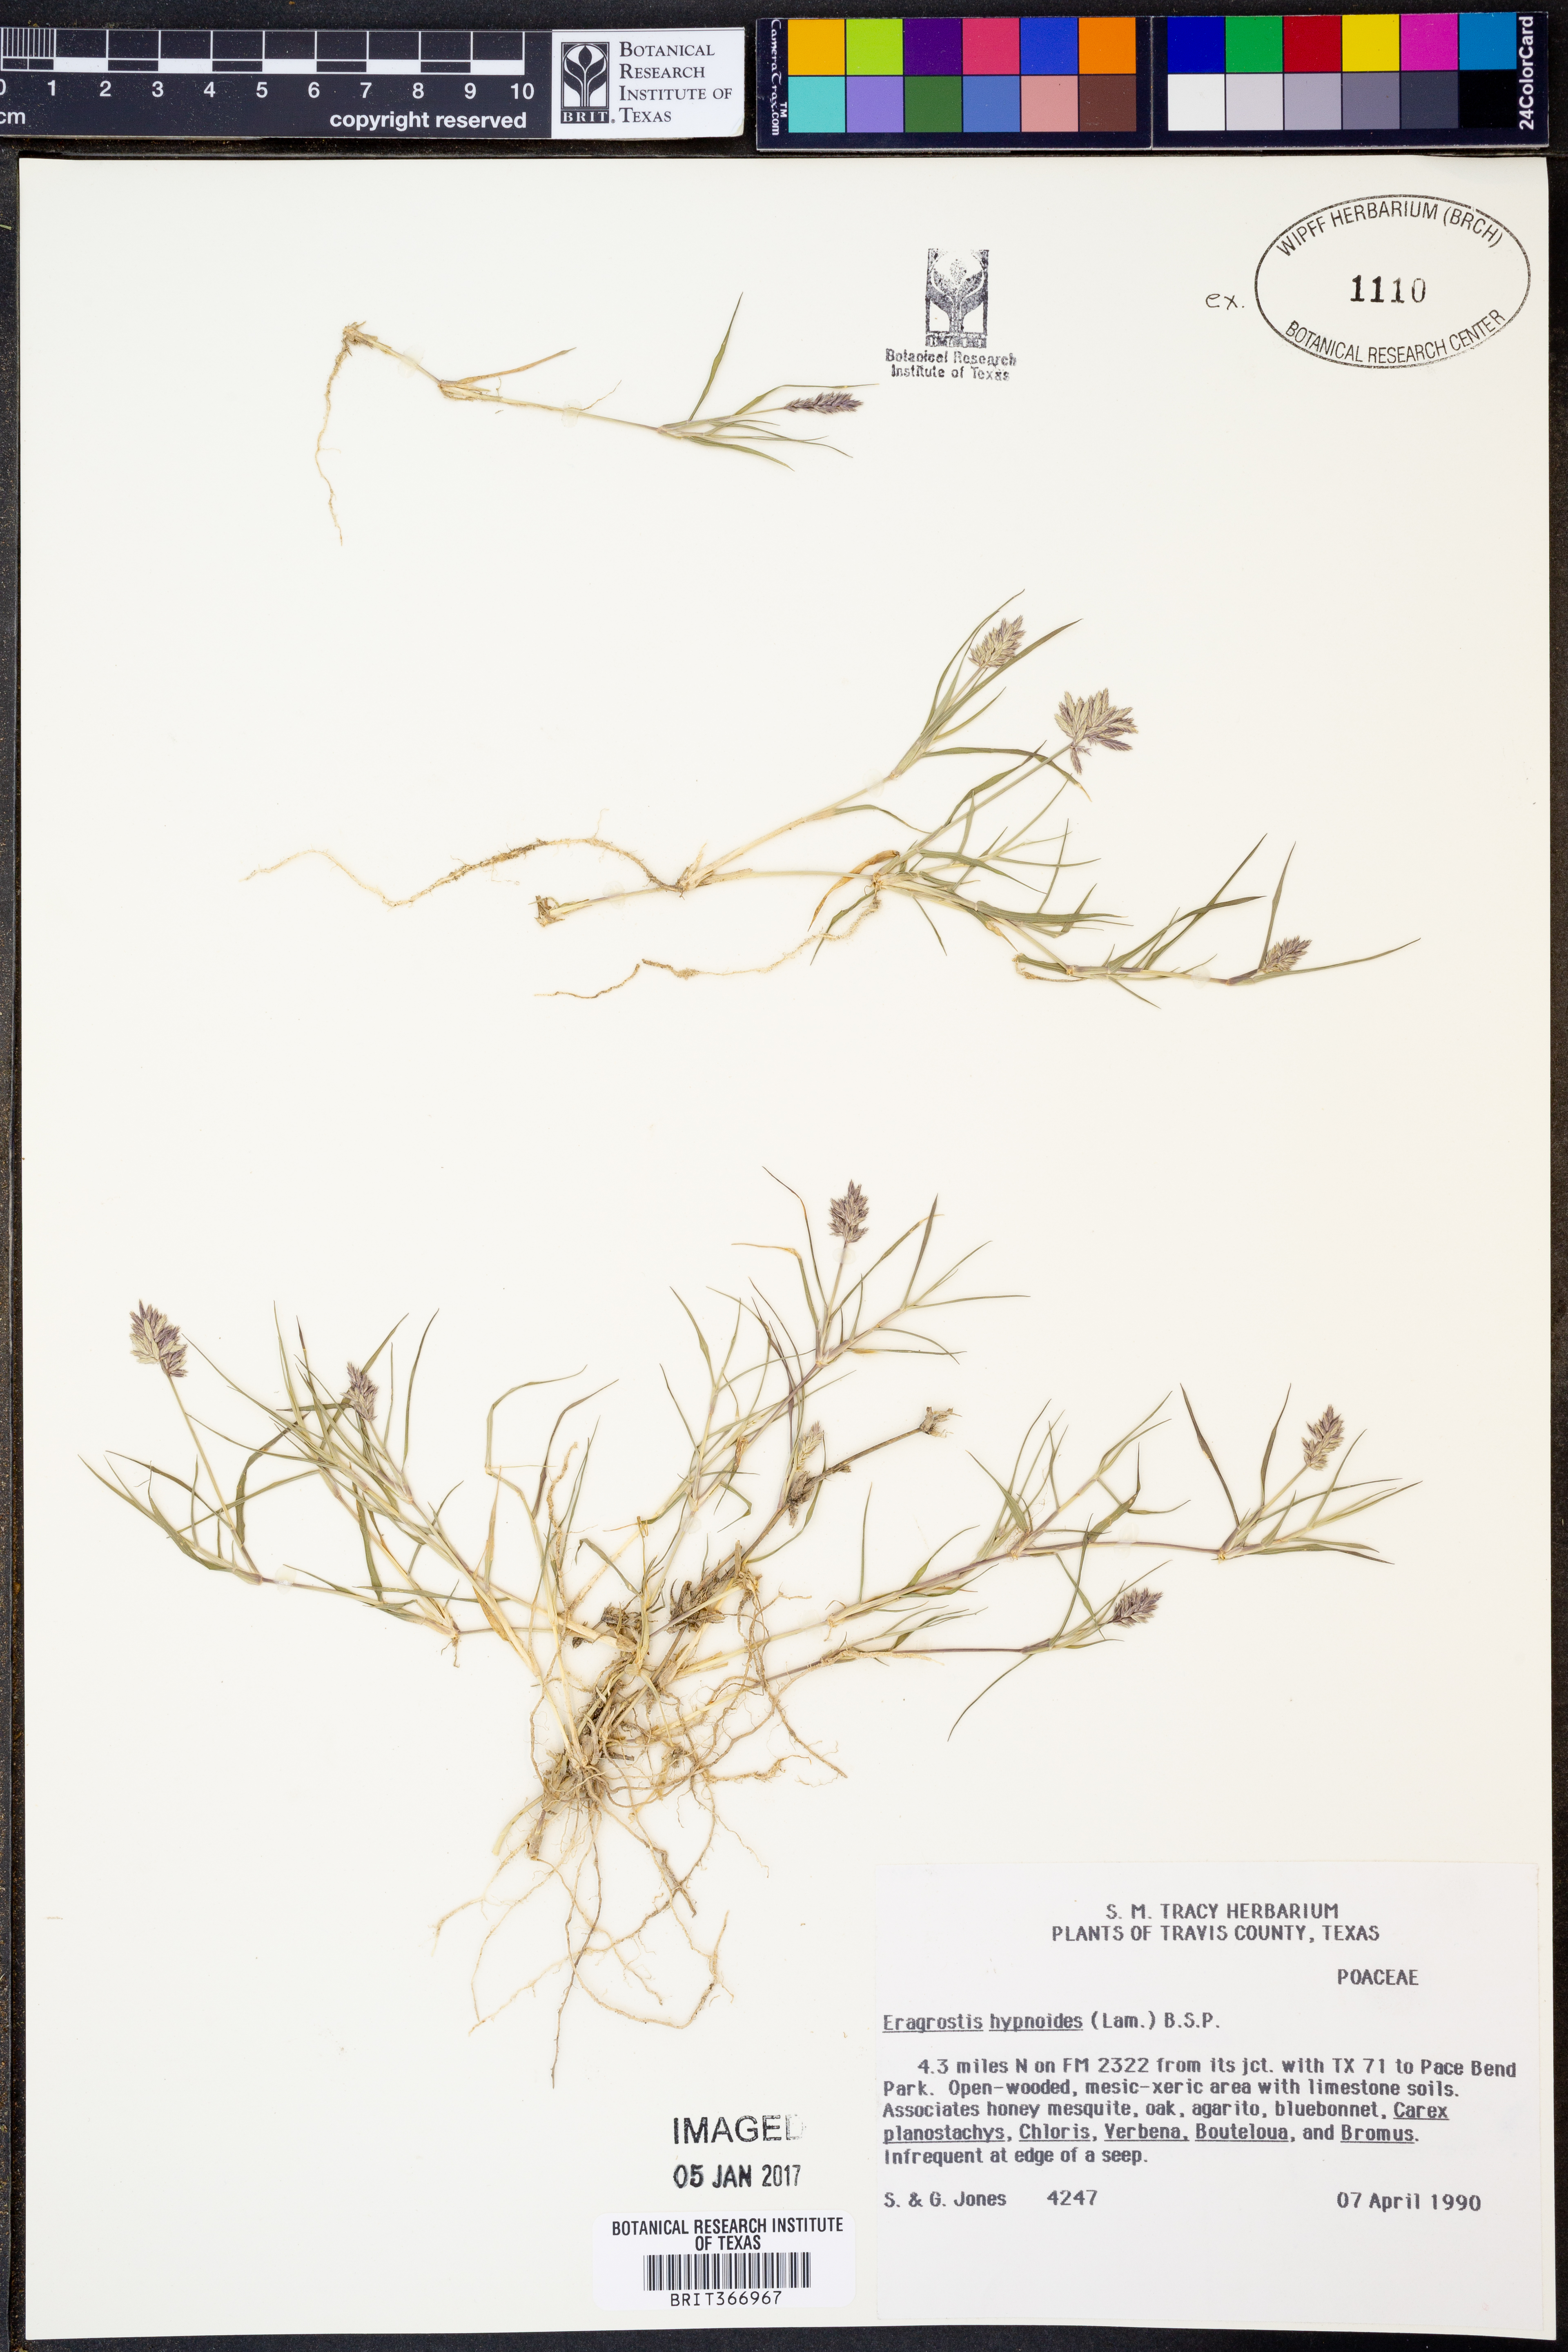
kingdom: Plantae
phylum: Tracheophyta
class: Liliopsida
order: Poales
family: Poaceae
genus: Eragrostis
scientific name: Eragrostis hypnoides
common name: Creeping love grass
